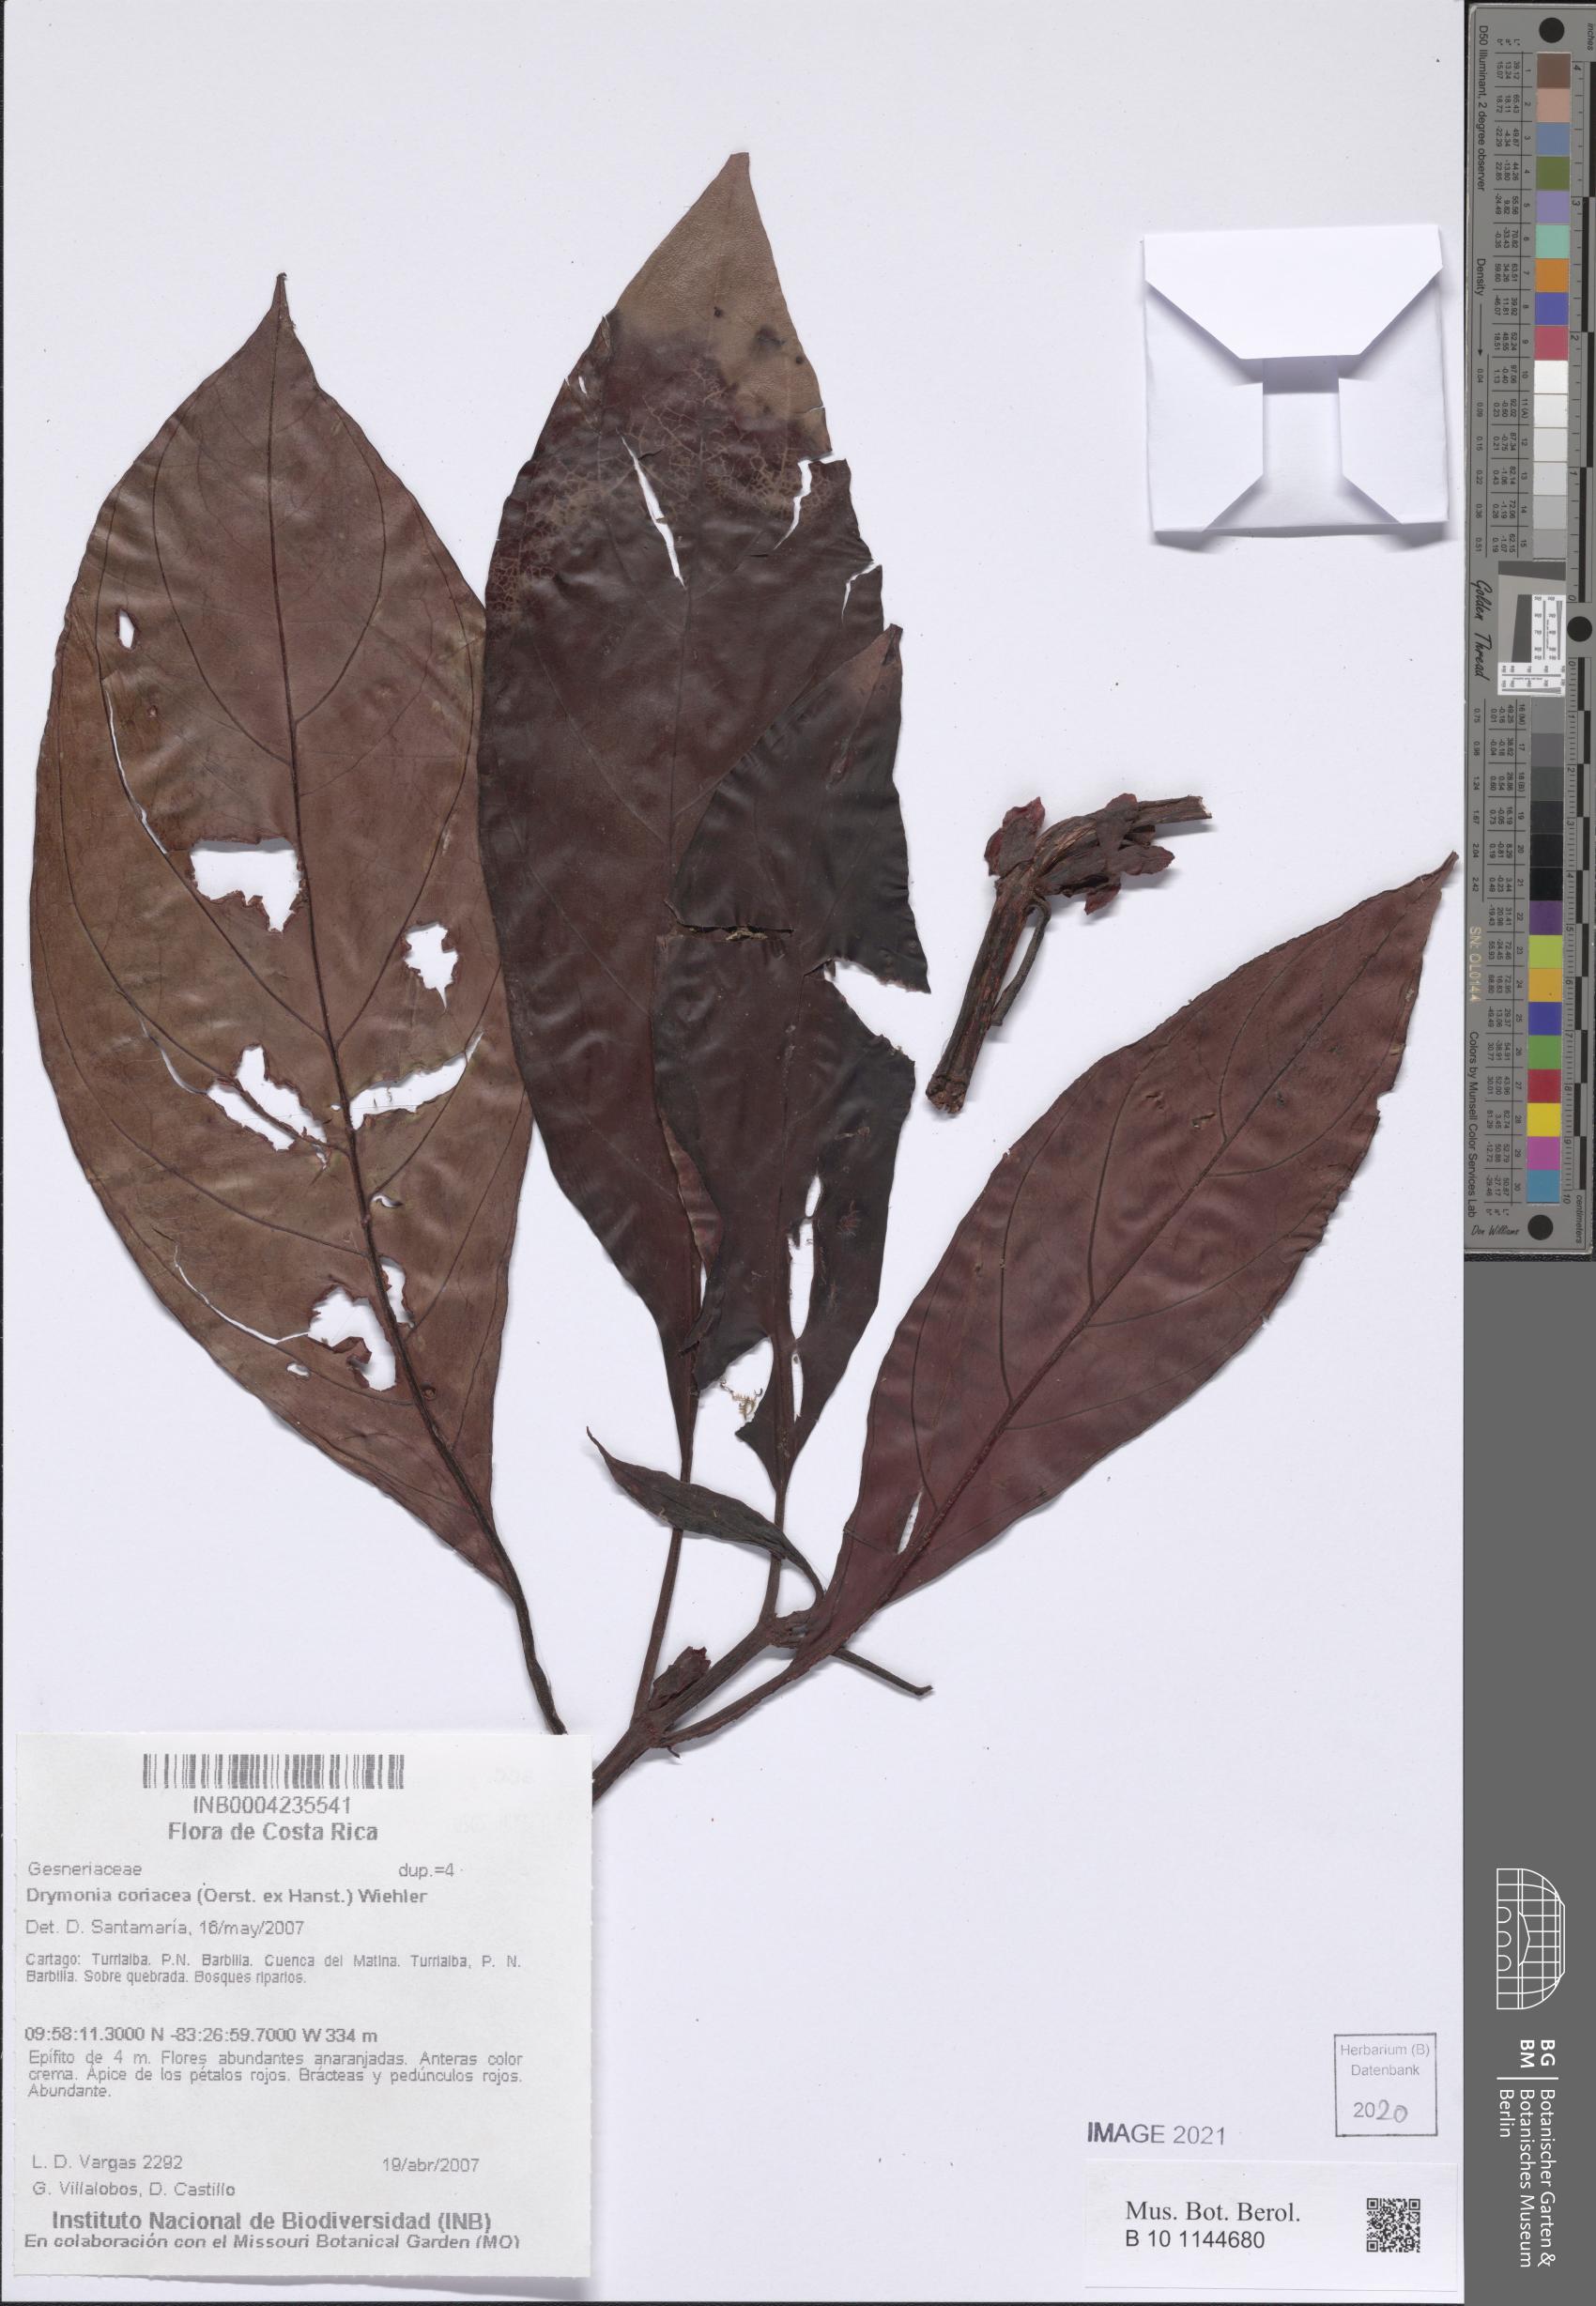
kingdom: Plantae
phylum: Tracheophyta
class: Magnoliopsida
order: Lamiales
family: Gesneriaceae
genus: Drymonia
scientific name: Drymonia coriacea
